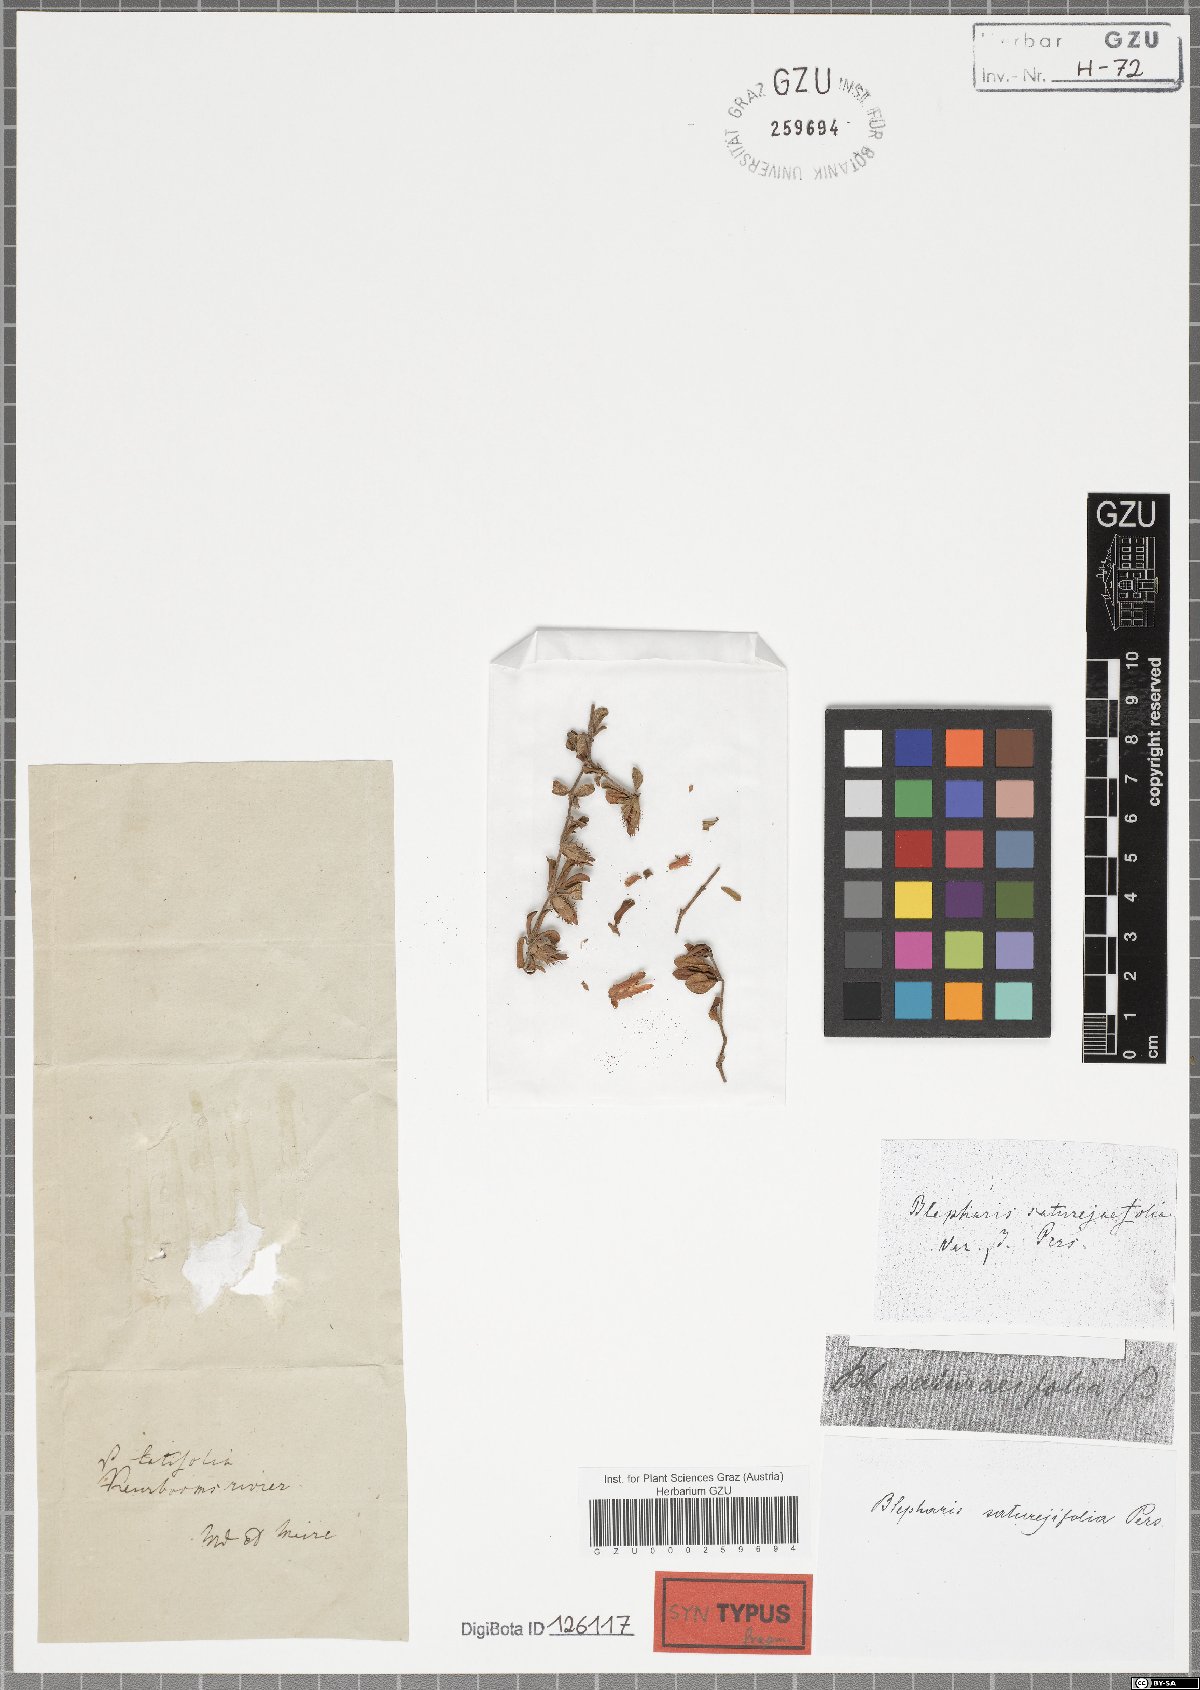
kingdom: Plantae
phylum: Tracheophyta
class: Magnoliopsida
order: Lamiales
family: Acanthaceae
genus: Blepharis
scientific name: Blepharis integrifolia
